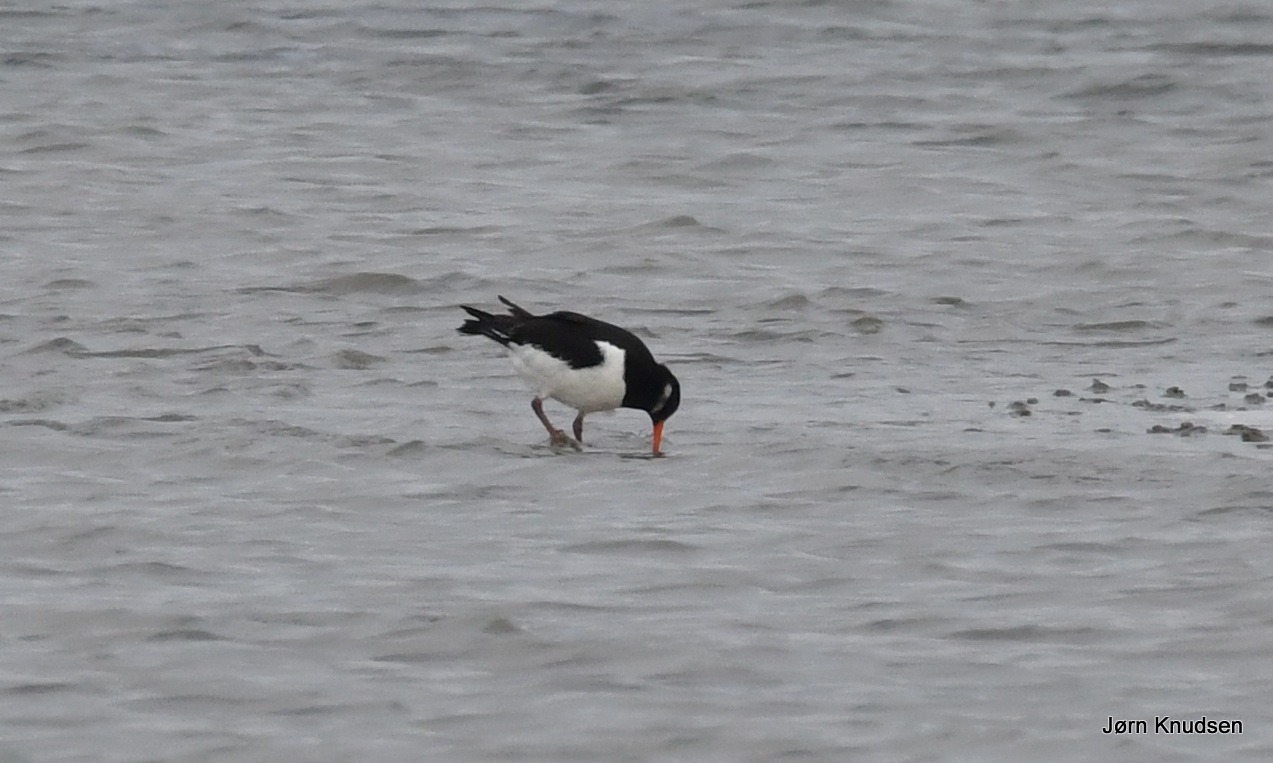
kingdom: Animalia
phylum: Chordata
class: Aves
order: Charadriiformes
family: Haematopodidae
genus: Haematopus
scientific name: Haematopus ostralegus
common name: Strandskade
